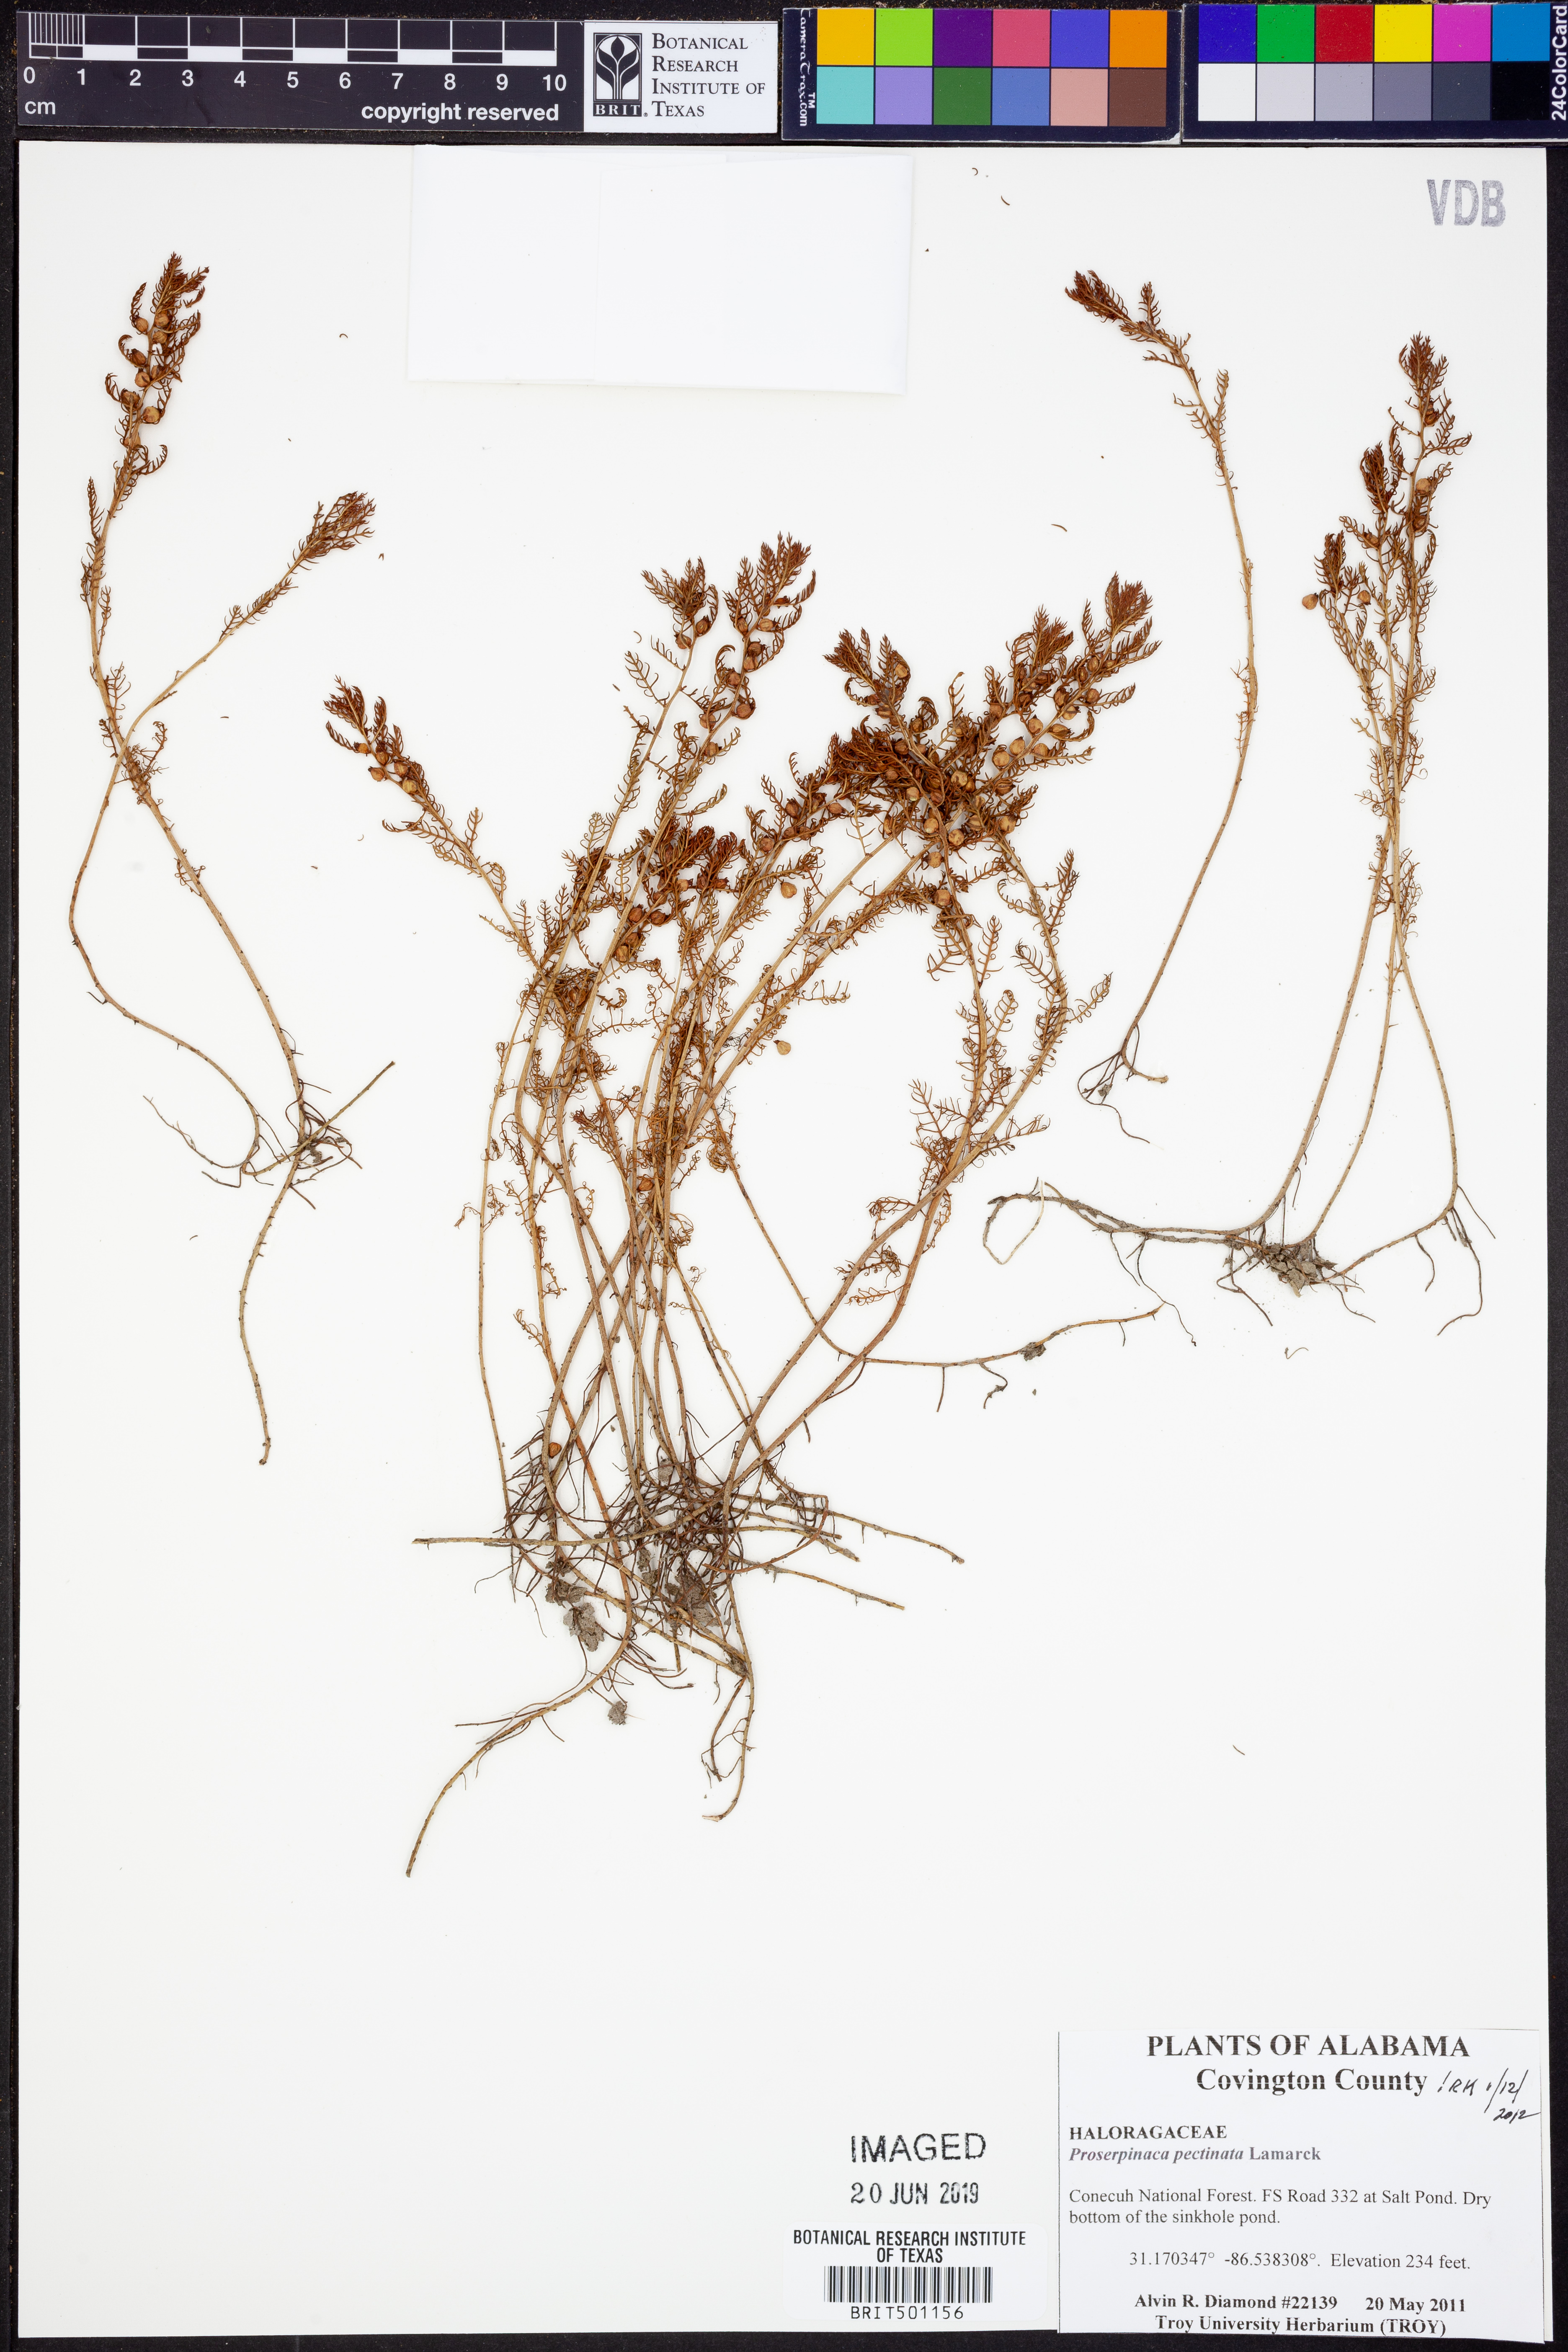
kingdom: Plantae
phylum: Tracheophyta
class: Magnoliopsida
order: Saxifragales
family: Haloragaceae
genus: Proserpinaca
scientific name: Proserpinaca pectinata
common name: Comb-leaved mermaidweed
